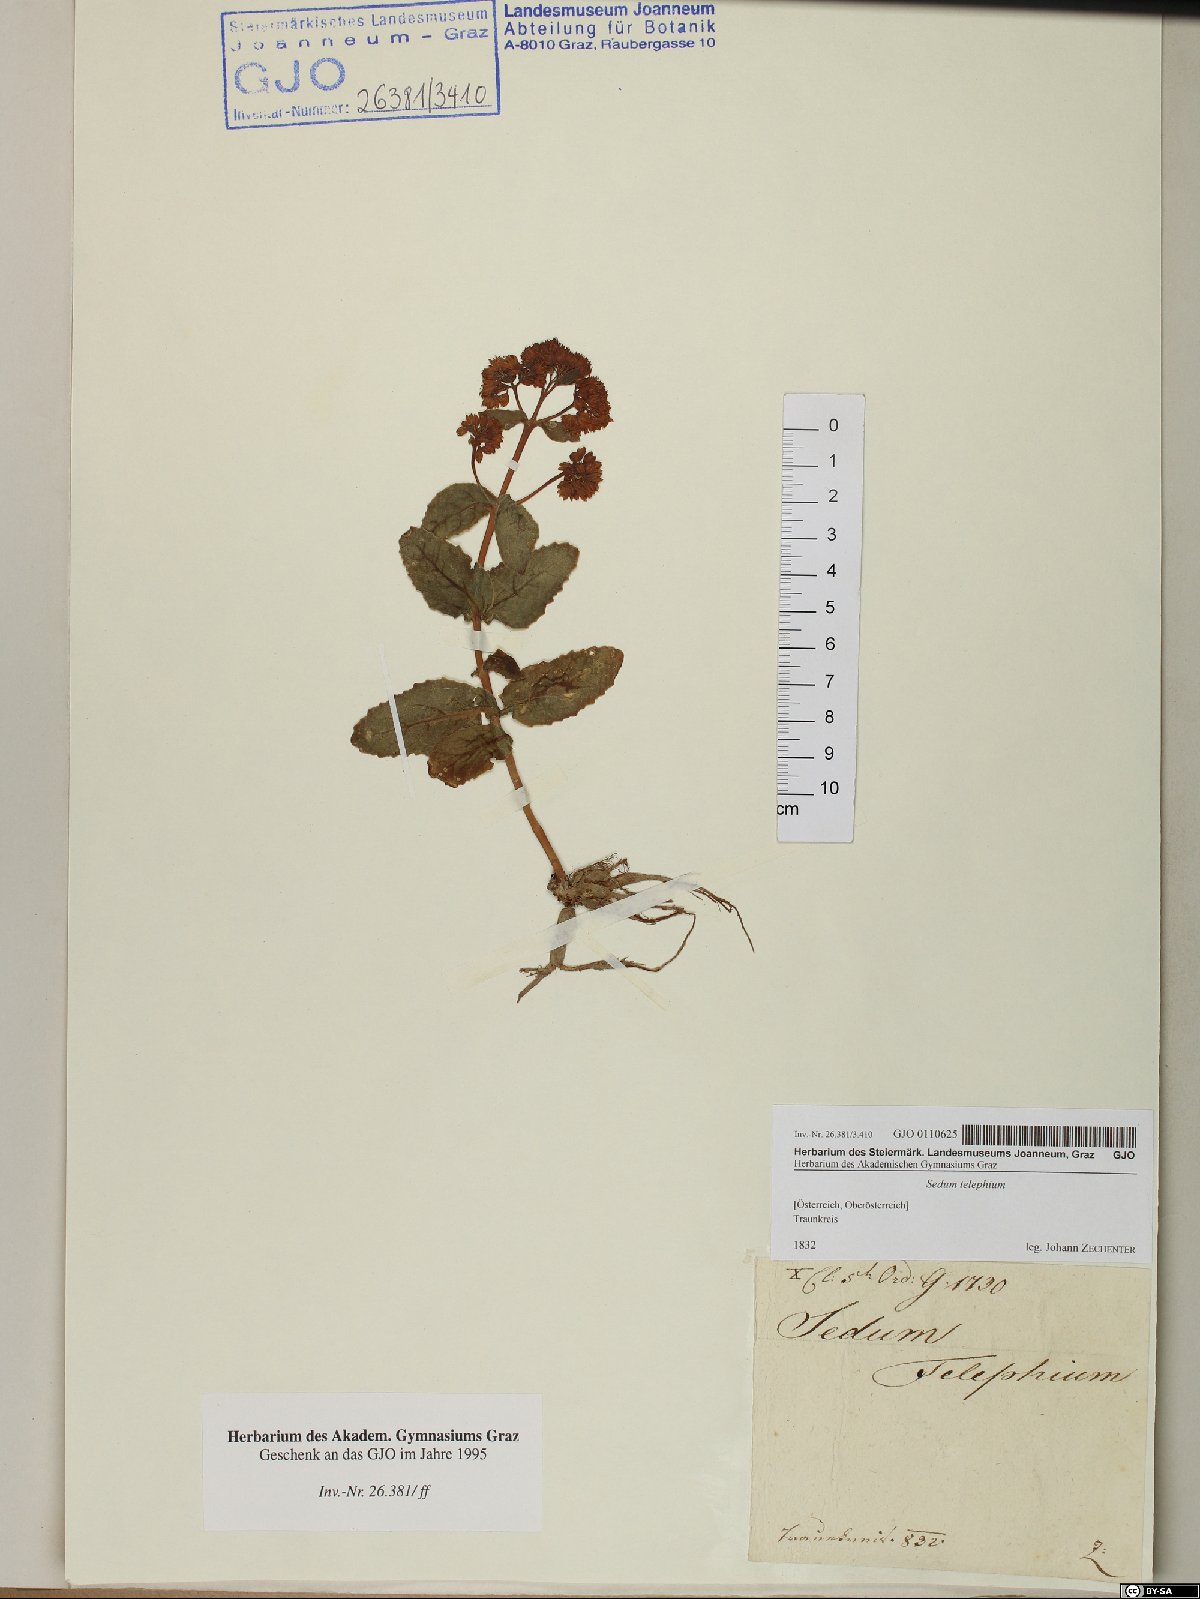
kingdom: Plantae
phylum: Tracheophyta
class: Magnoliopsida
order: Saxifragales
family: Crassulaceae
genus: Hylotelephium
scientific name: Hylotelephium telephium
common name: Live-forever
